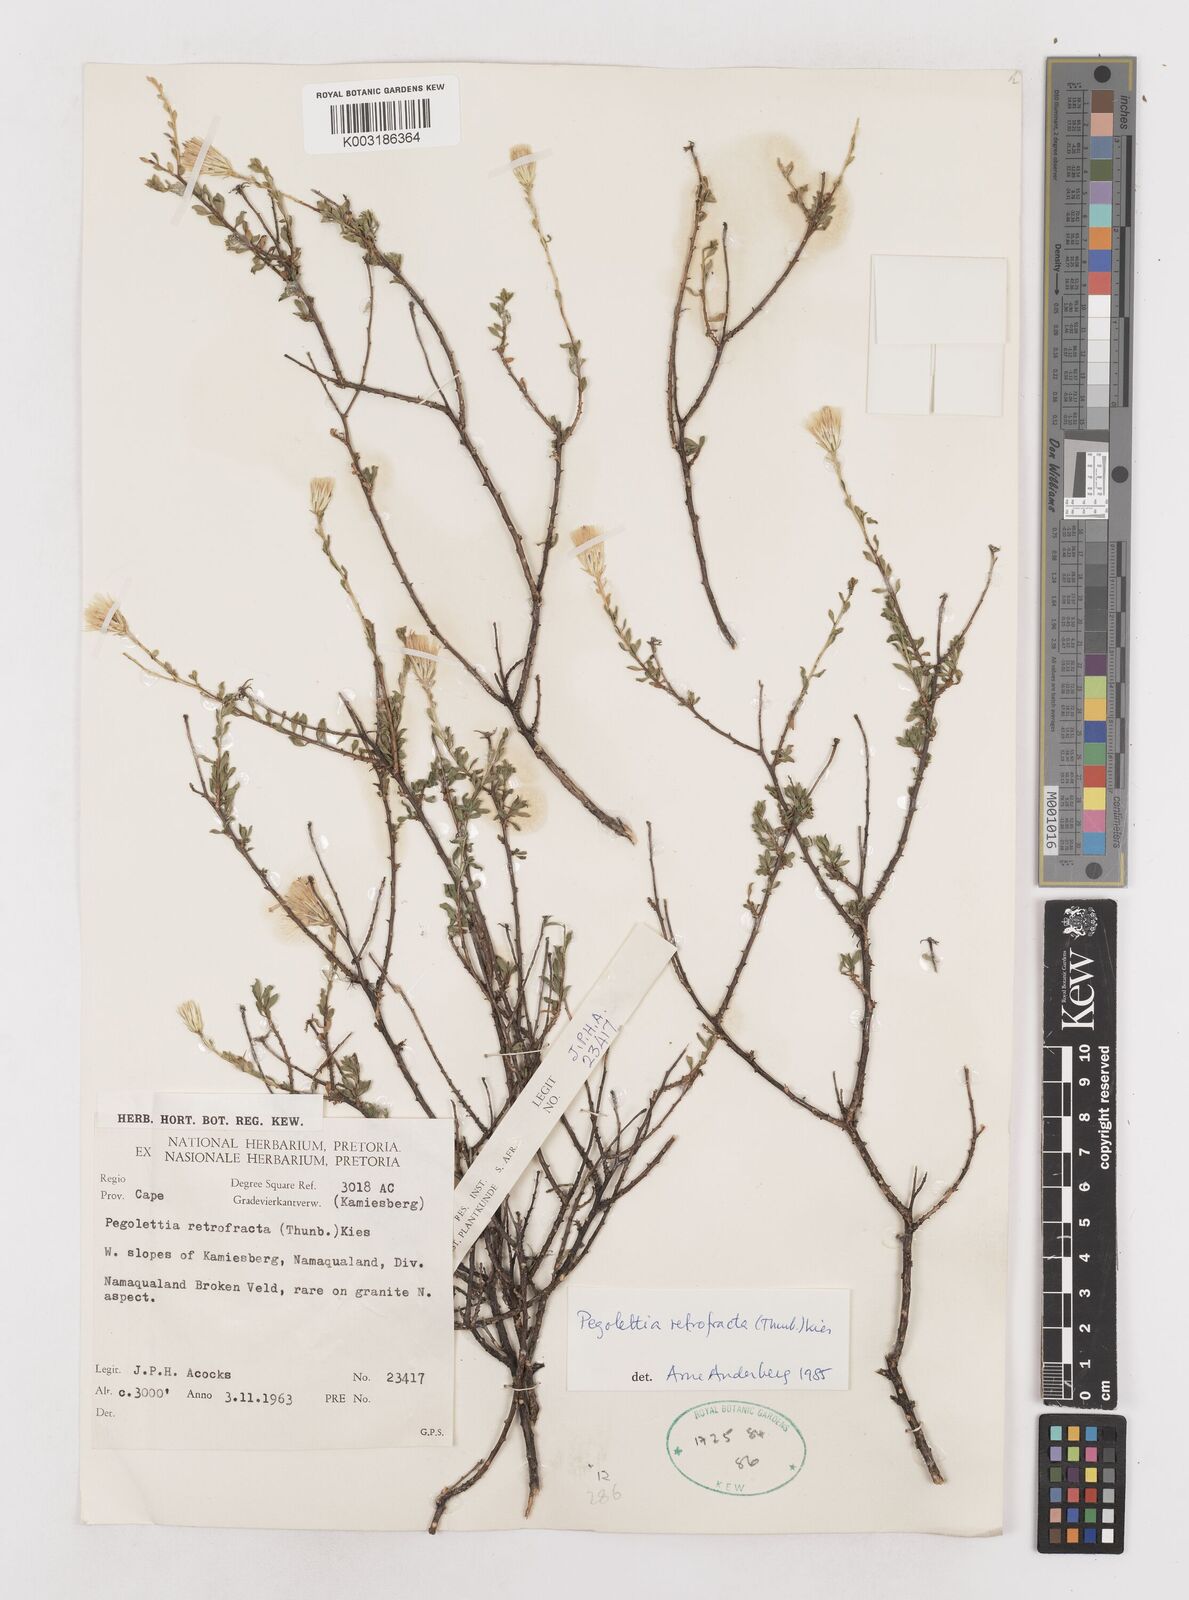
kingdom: Plantae
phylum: Tracheophyta
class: Magnoliopsida
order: Asterales
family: Asteraceae
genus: Pegolettia
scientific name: Pegolettia retrofracta
